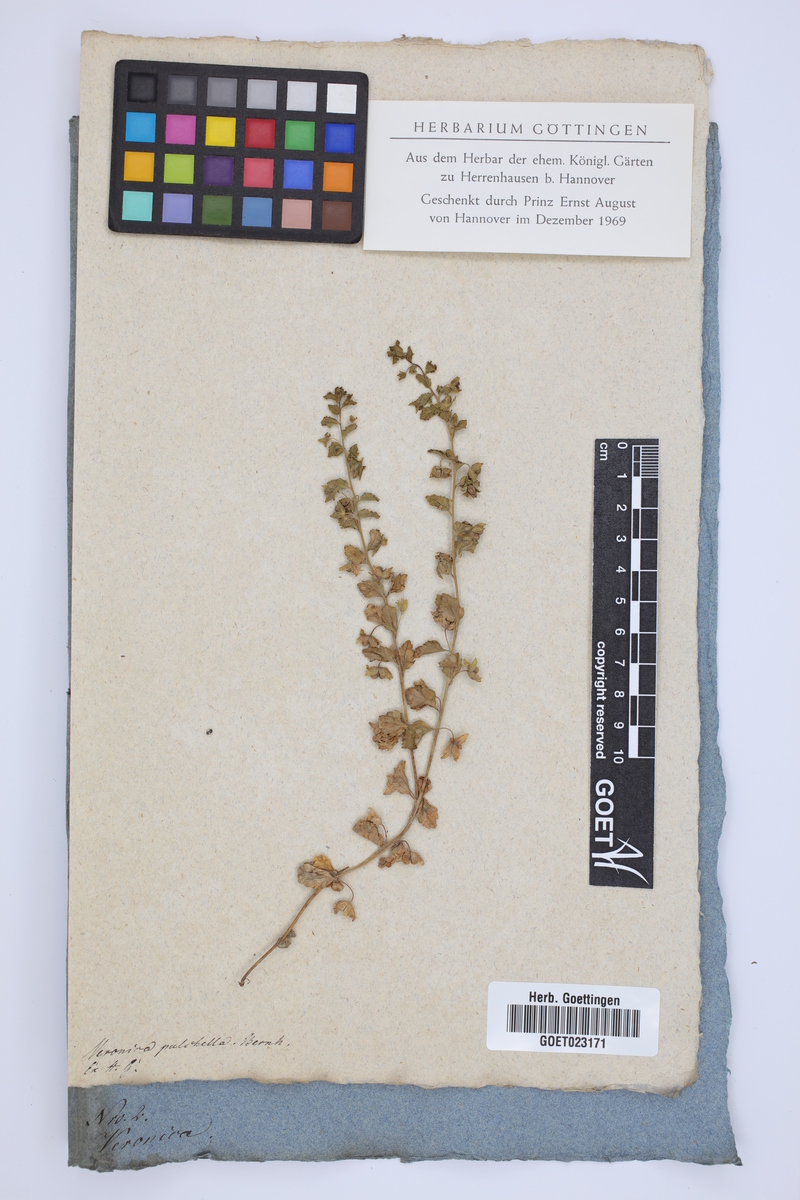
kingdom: Plantae
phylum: Tracheophyta
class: Magnoliopsida
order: Lamiales
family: Plantaginaceae
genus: Veronica
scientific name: Veronica pulchella
